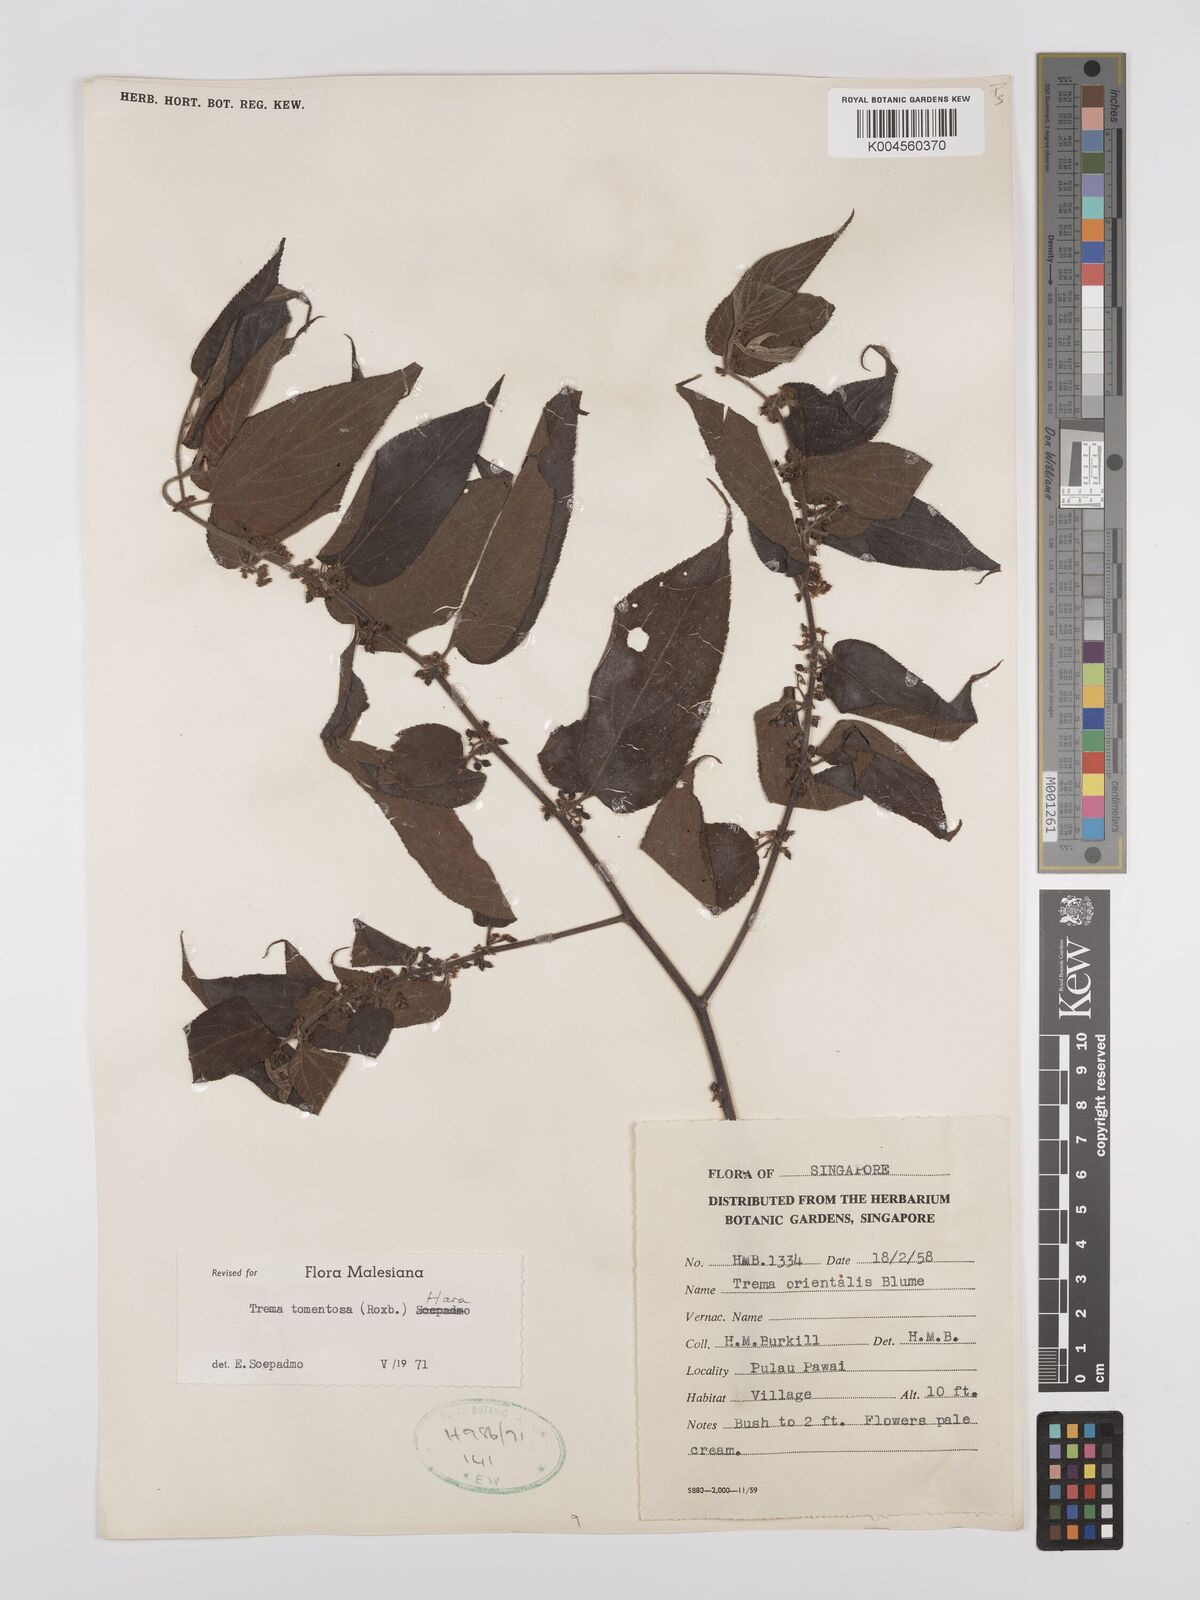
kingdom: Plantae
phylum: Tracheophyta
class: Magnoliopsida
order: Rosales
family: Cannabaceae
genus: Trema
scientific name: Trema tomentosum
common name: Peach-leaf-poisonbush
